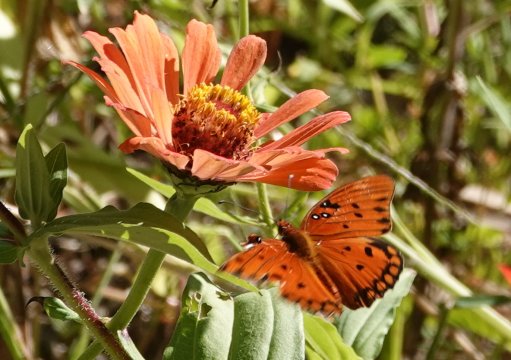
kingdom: Animalia
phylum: Arthropoda
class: Insecta
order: Lepidoptera
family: Nymphalidae
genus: Dione
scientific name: Dione vanillae
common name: Gulf Fritillary
